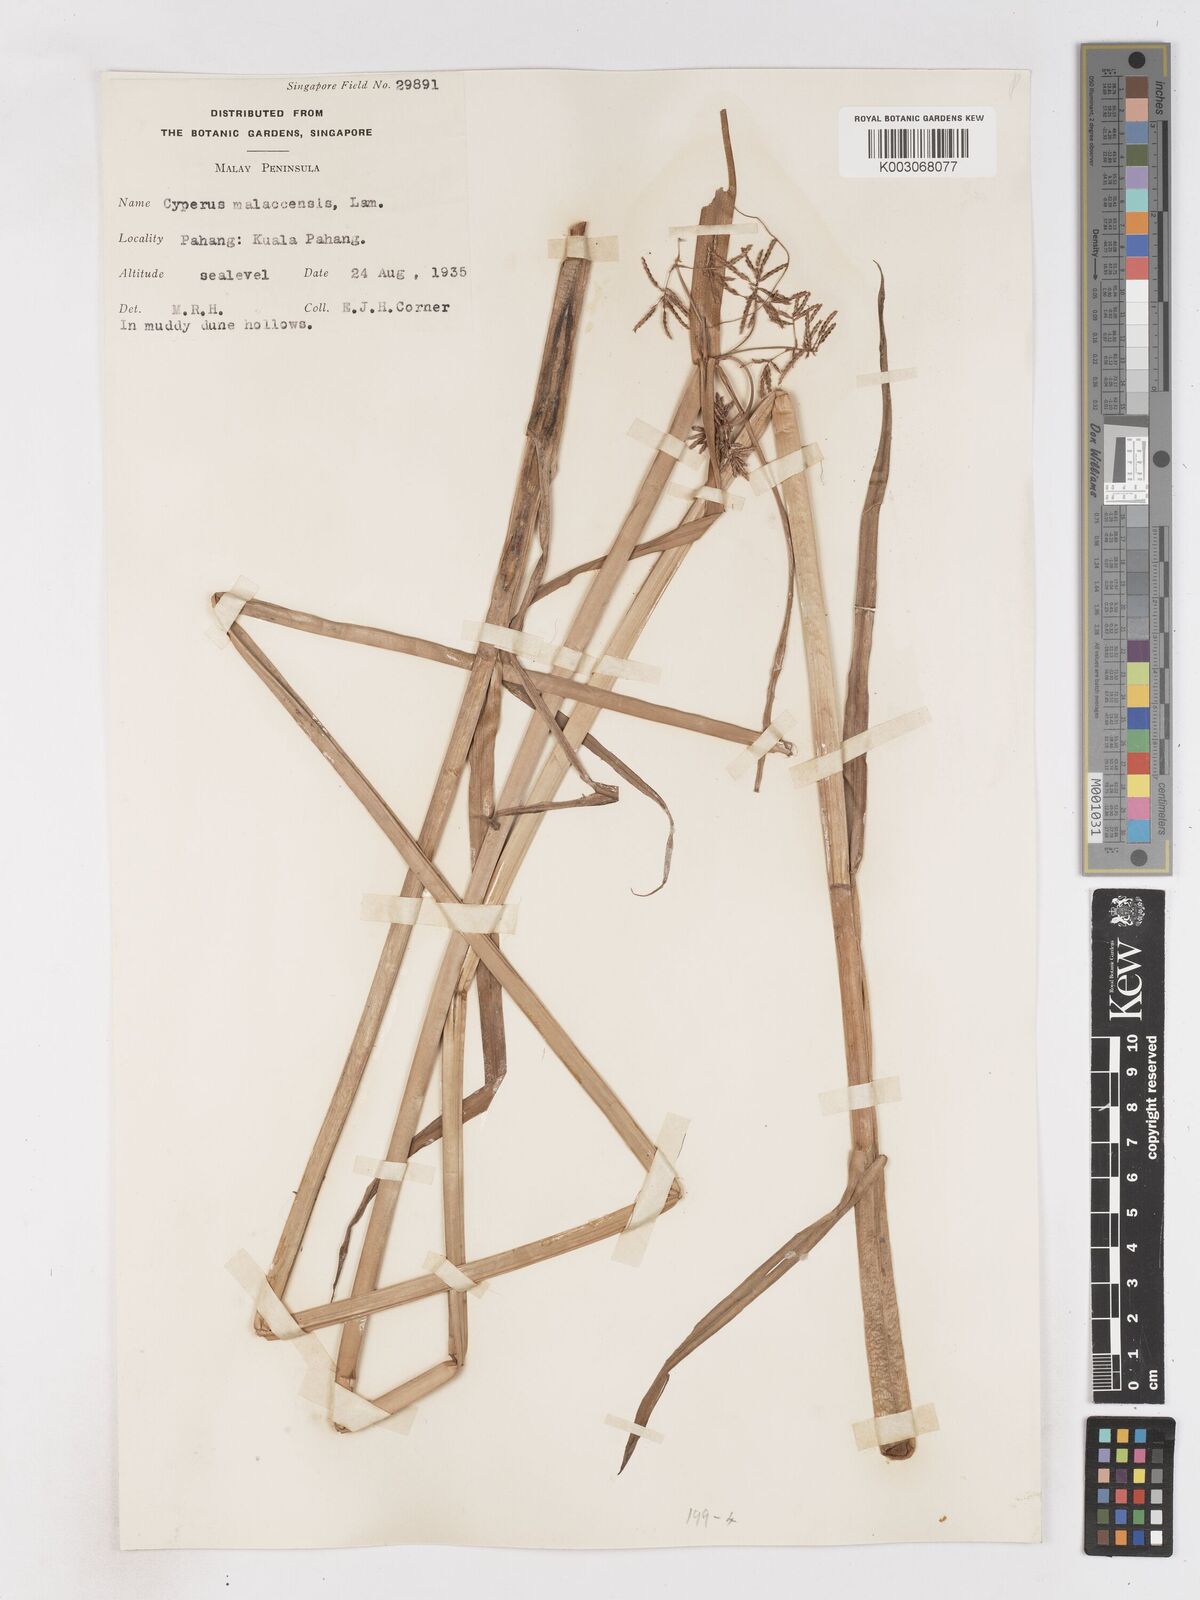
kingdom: Plantae
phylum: Tracheophyta
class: Liliopsida
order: Poales
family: Cyperaceae
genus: Cyperus
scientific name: Cyperus malaccensis
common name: Shichito matgrass
